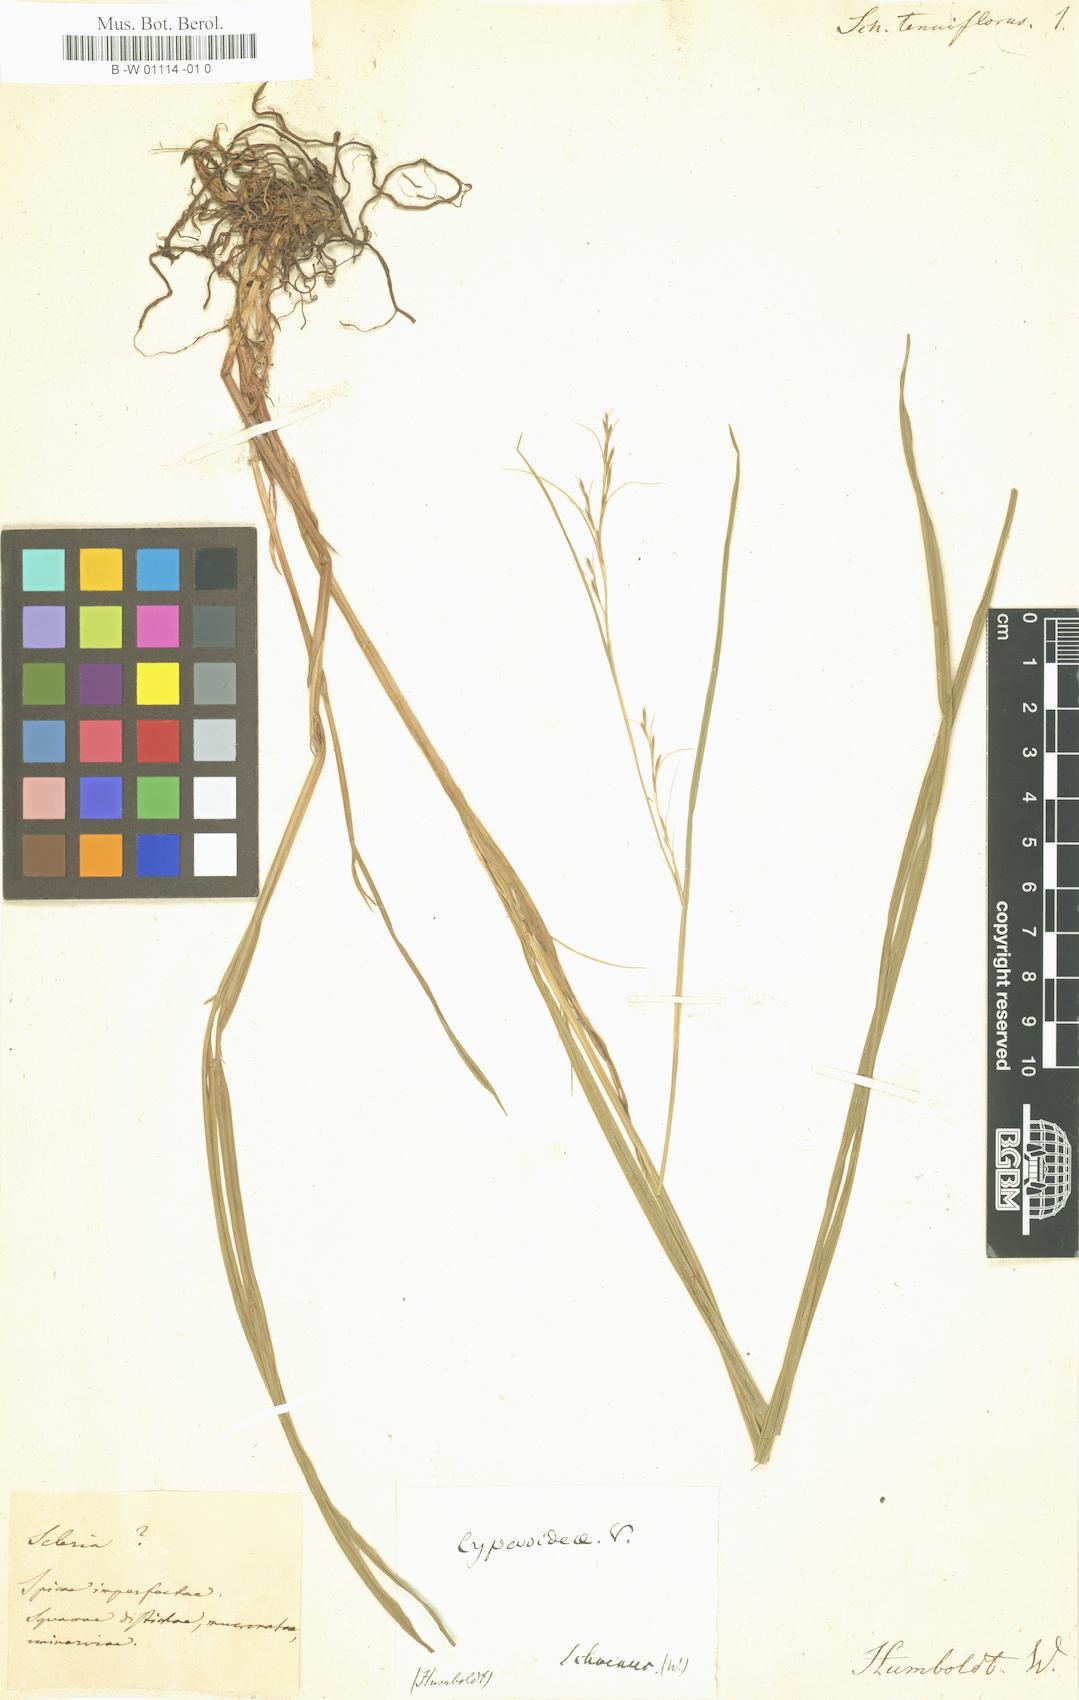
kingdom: Plantae
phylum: Tracheophyta
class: Liliopsida
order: Poales
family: Cyperaceae
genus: Schoenus
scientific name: Schoenus tenuiflorus
